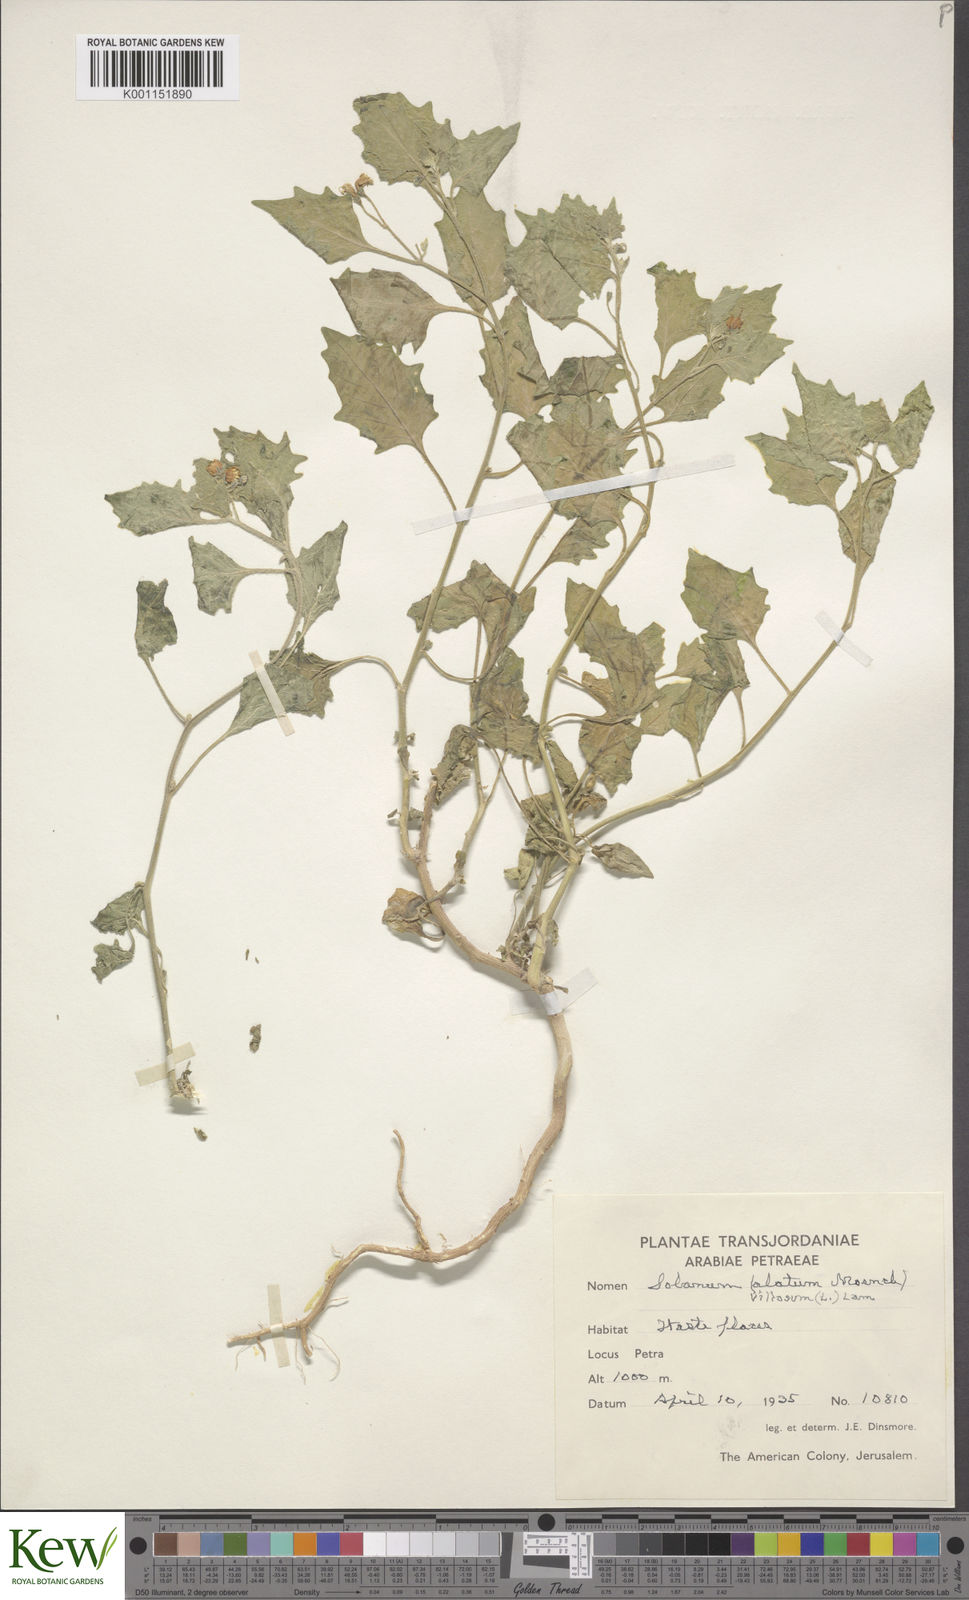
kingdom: Plantae
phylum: Tracheophyta
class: Magnoliopsida
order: Solanales
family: Solanaceae
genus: Solanum
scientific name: Solanum villosum
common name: Red nightshade
